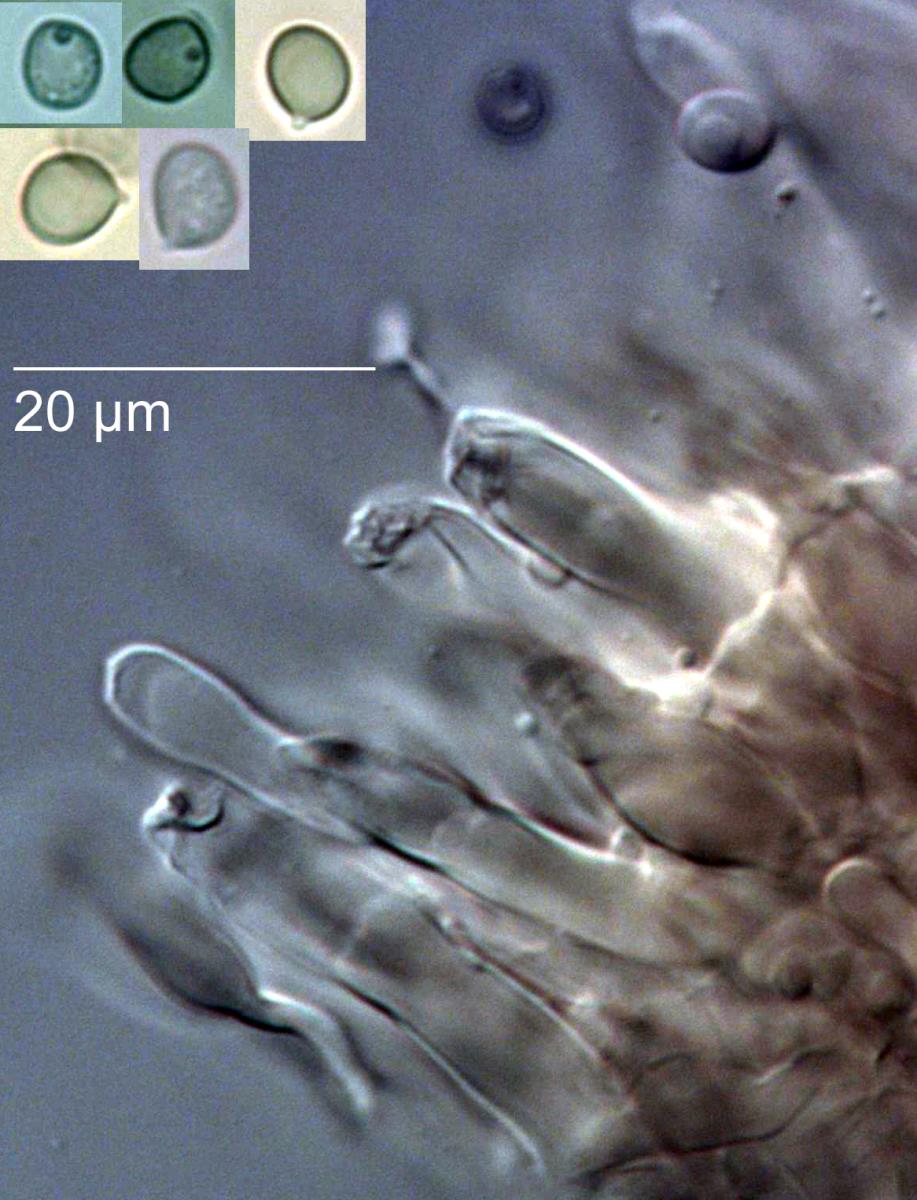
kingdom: Fungi
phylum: Basidiomycota
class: Agaricomycetes
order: Agaricales
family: Mycenaceae
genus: Mycena
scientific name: Mycena
